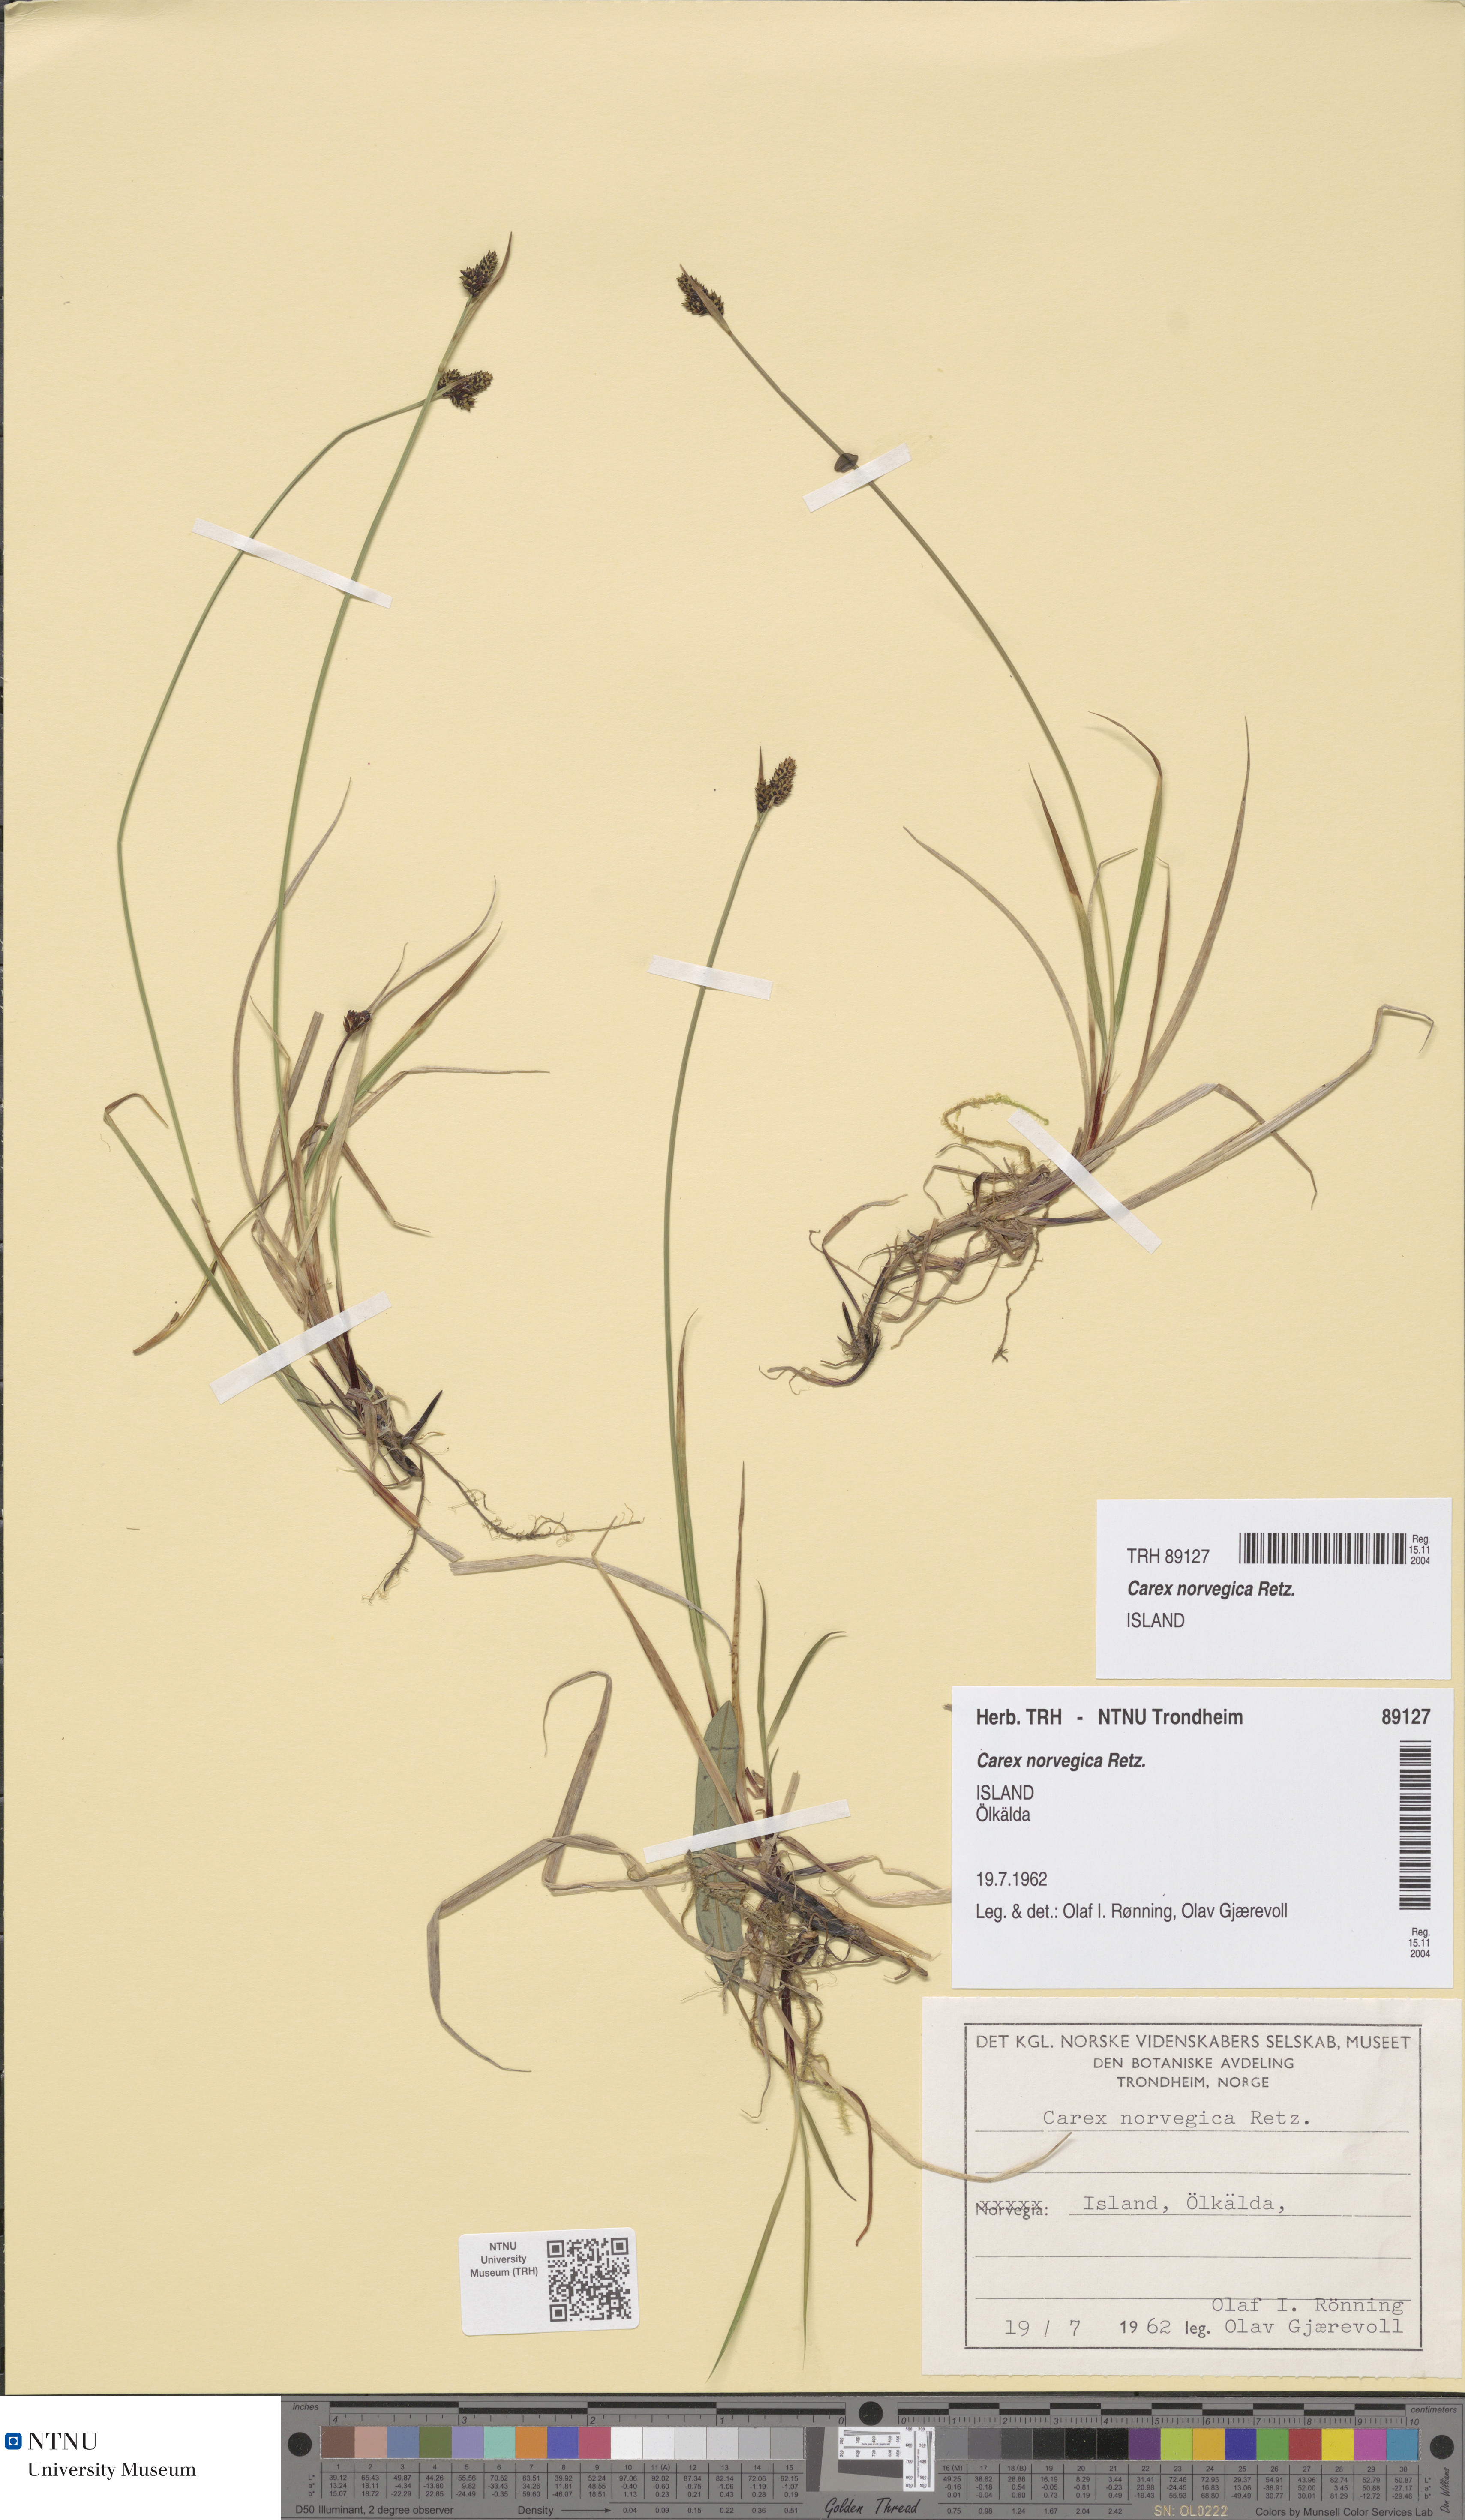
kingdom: Plantae
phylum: Tracheophyta
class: Liliopsida
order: Poales
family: Cyperaceae
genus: Carex
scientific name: Carex norvegica
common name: Close-headed alpine-sedge
